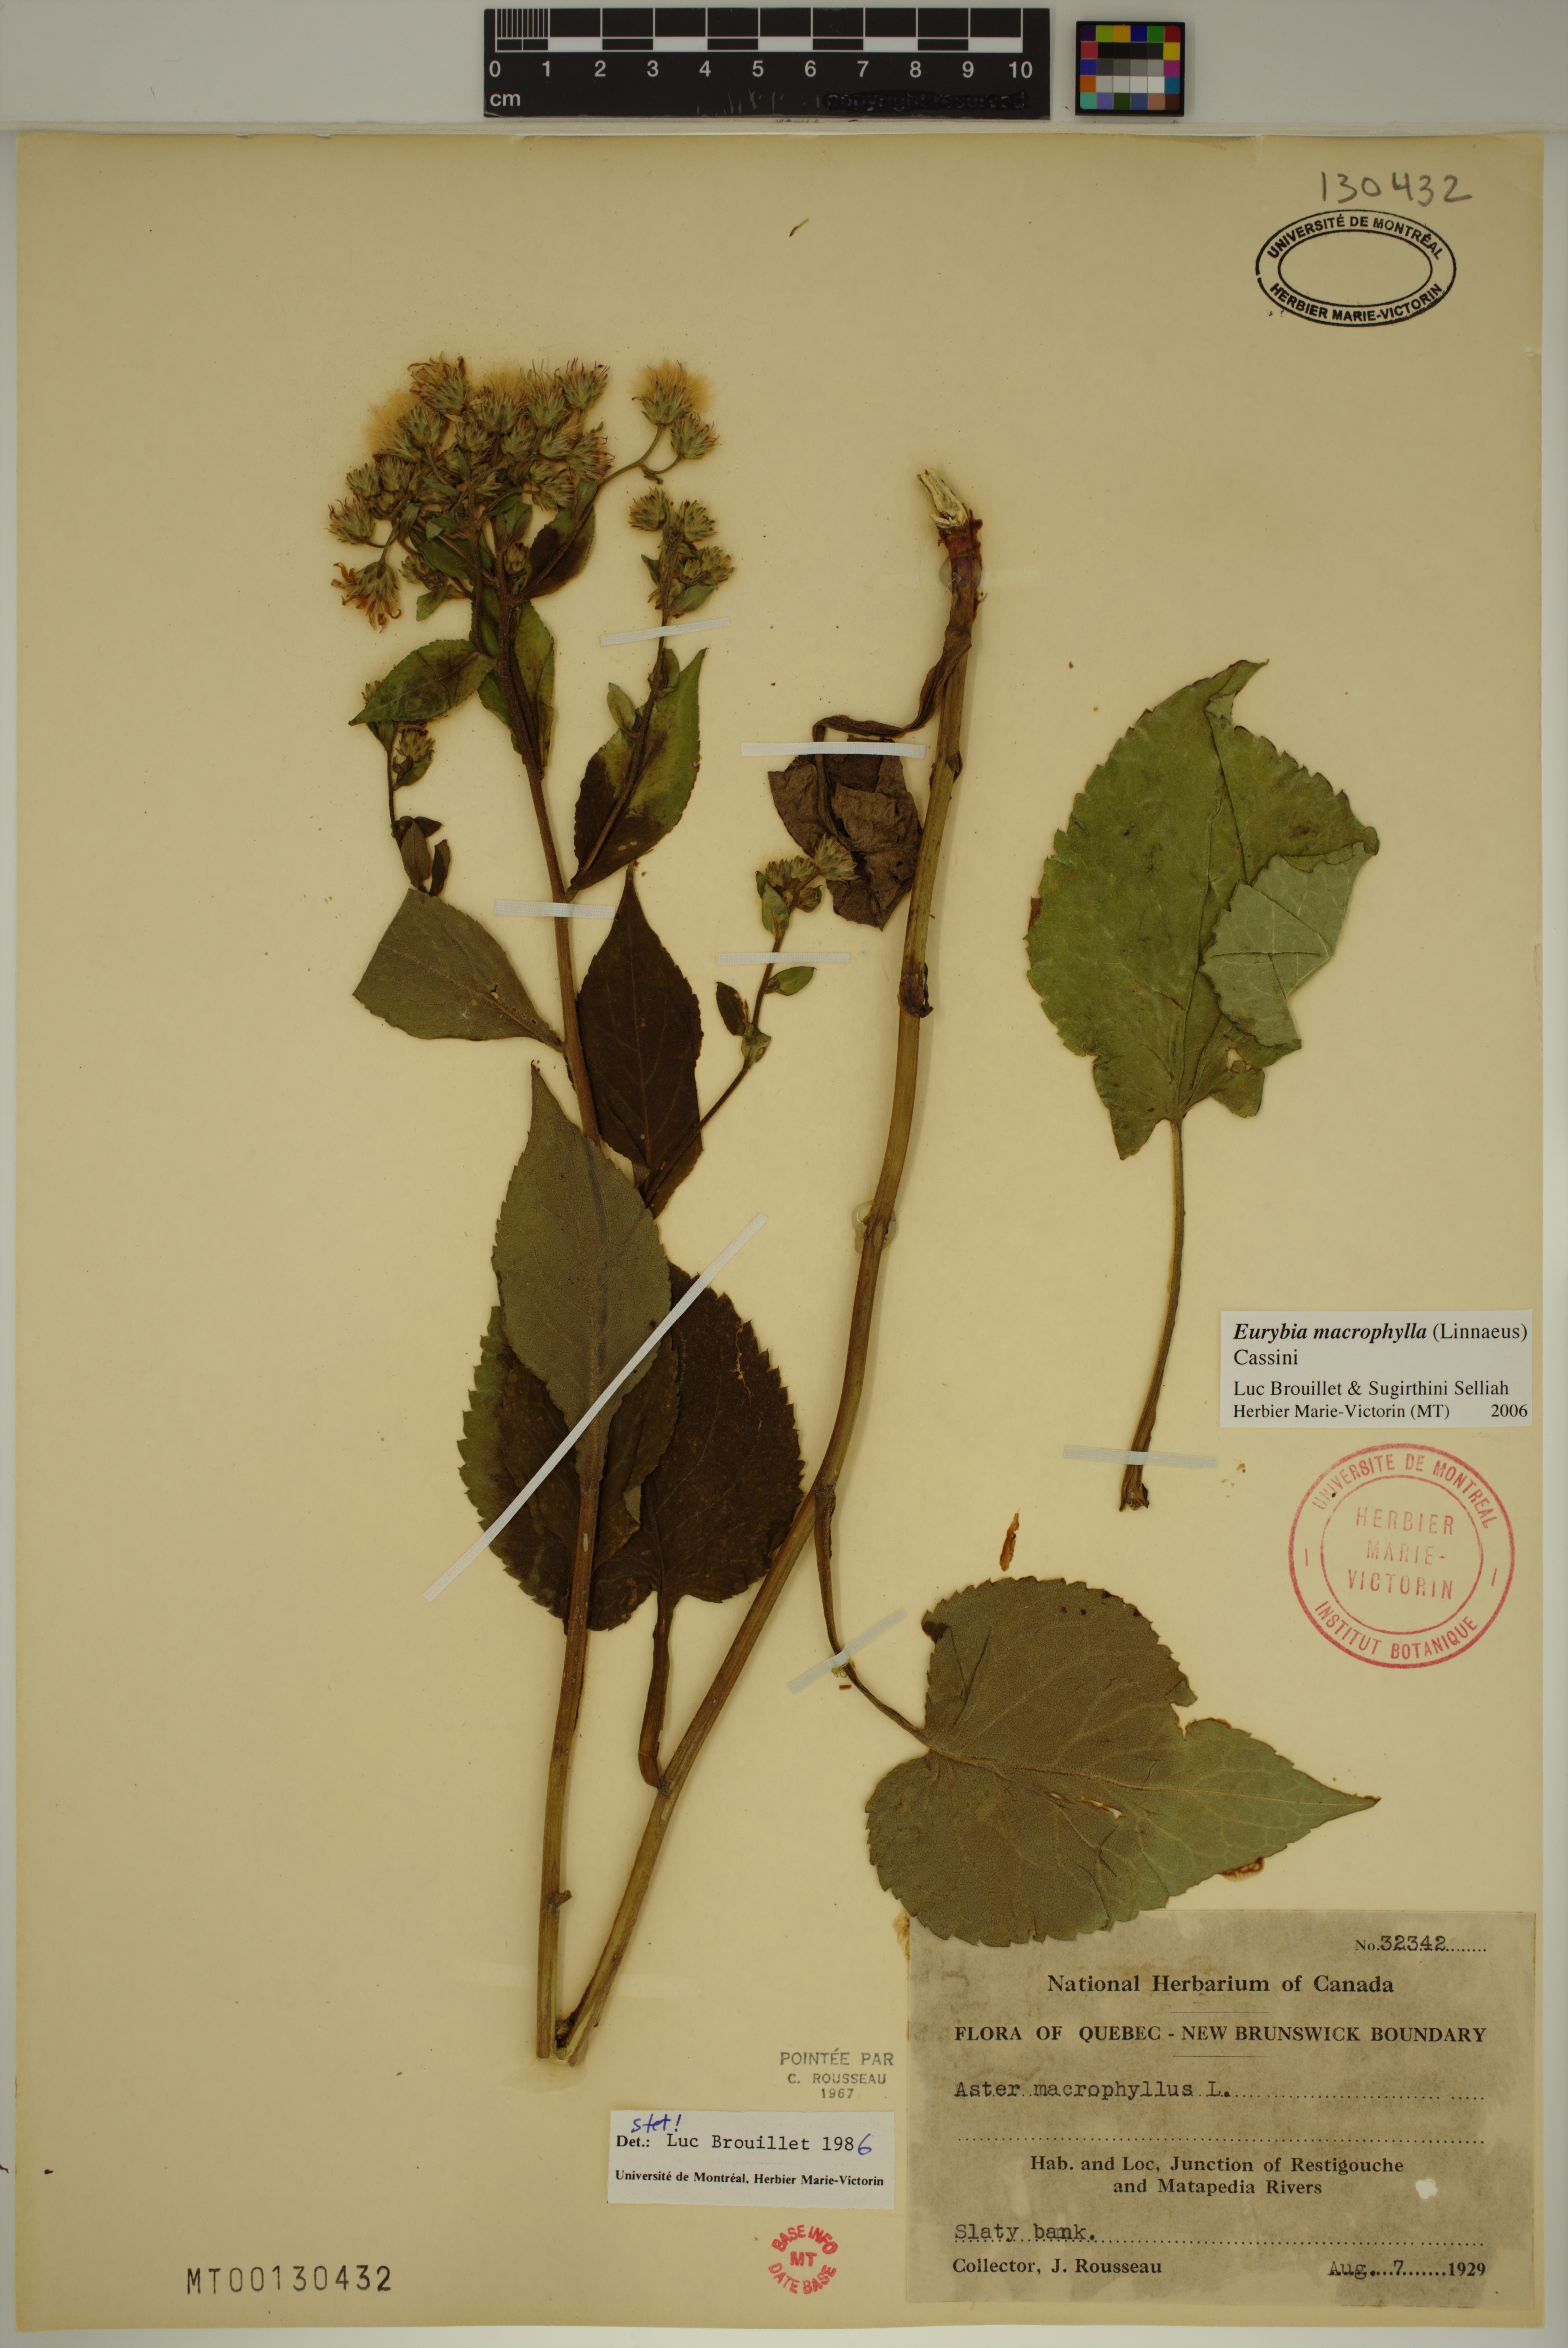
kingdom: Plantae
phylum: Tracheophyta
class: Magnoliopsida
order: Asterales
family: Asteraceae
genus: Eurybia
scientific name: Eurybia macrophylla
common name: Big-leaved aster
